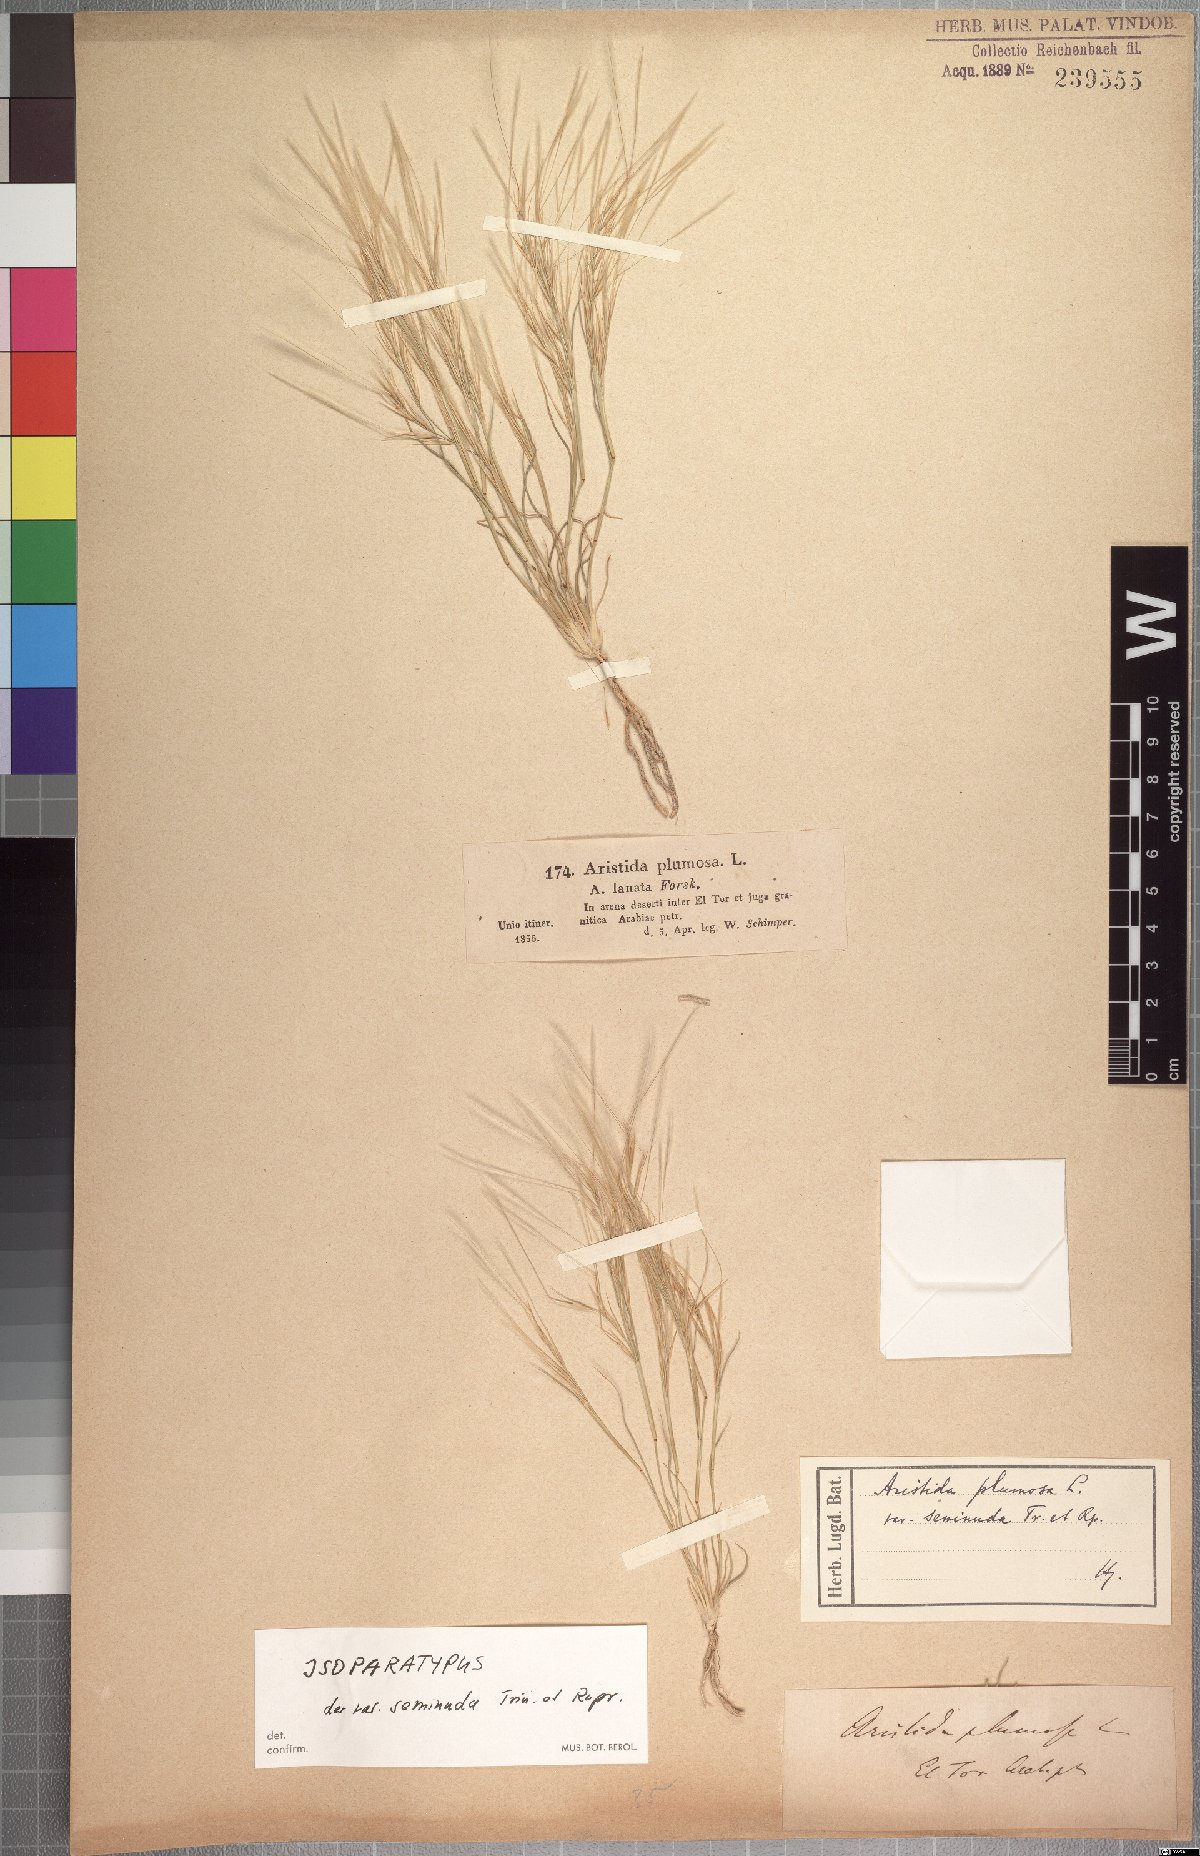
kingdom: Plantae
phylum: Tracheophyta
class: Liliopsida
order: Poales
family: Poaceae
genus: Stipagrostis
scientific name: Stipagrostis plumosa
